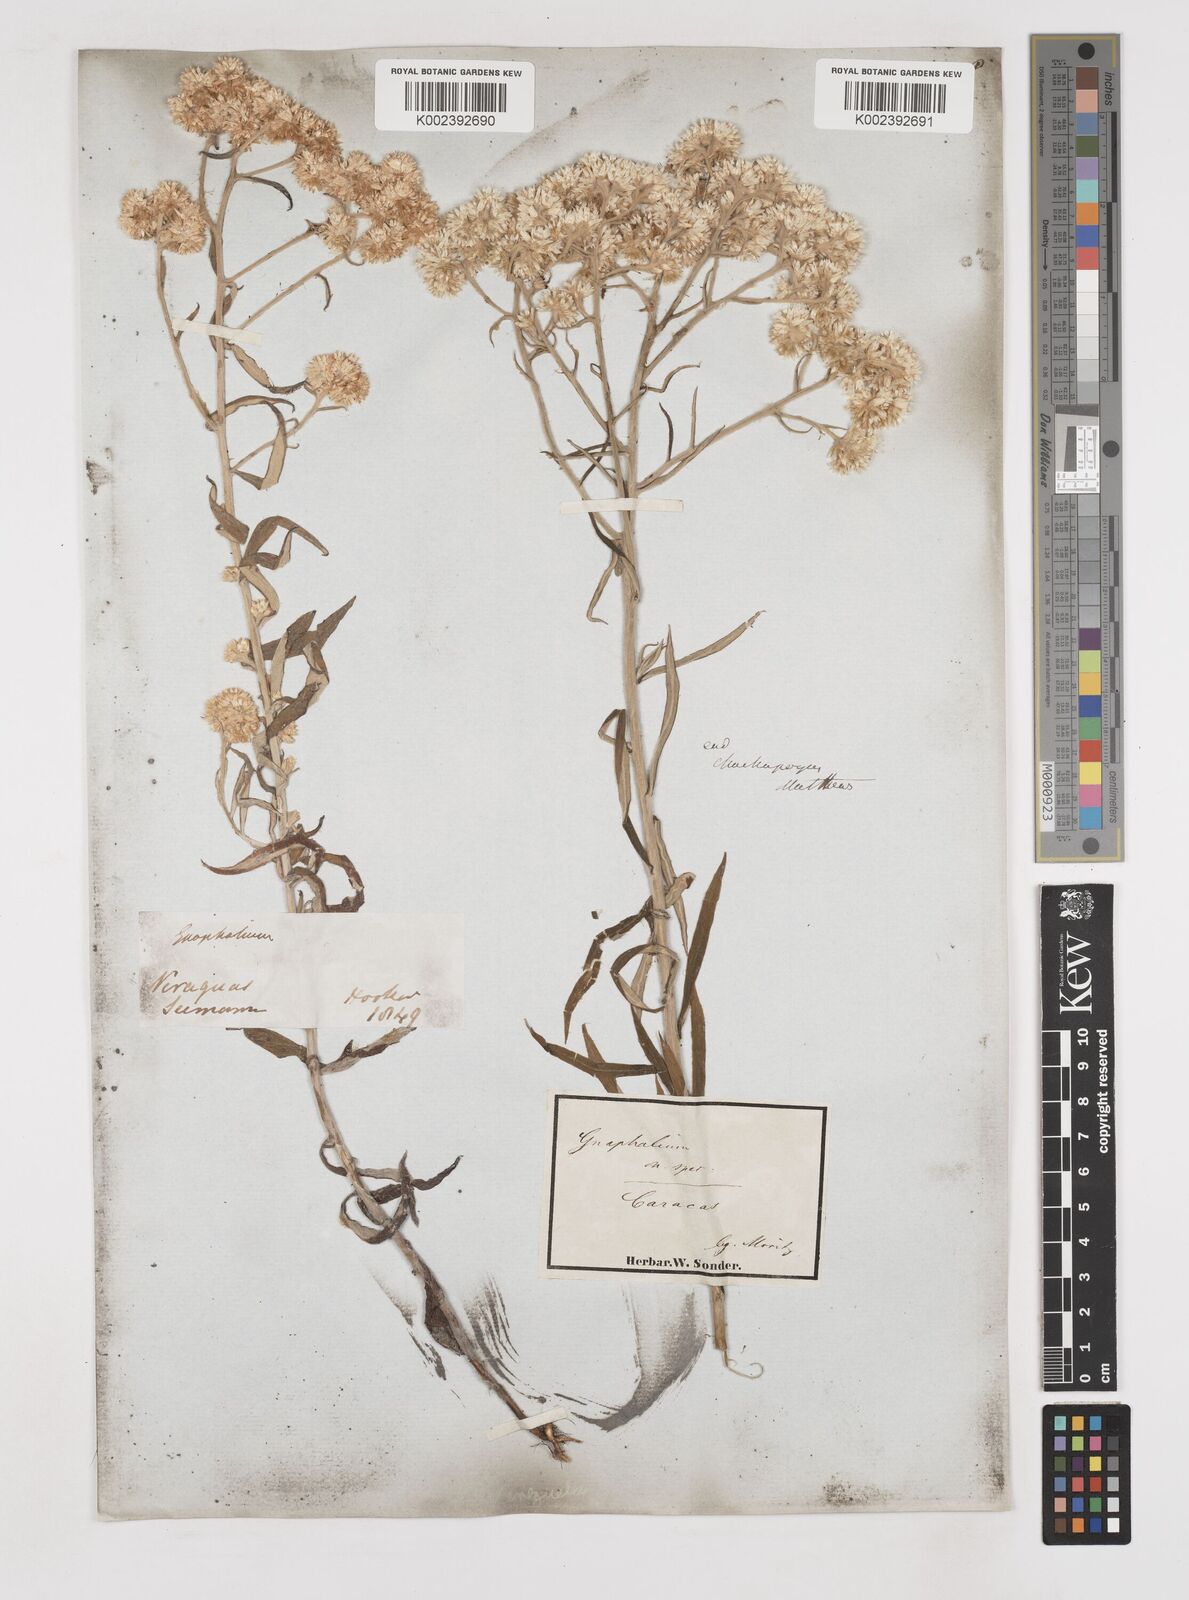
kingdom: Plantae
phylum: Tracheophyta
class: Magnoliopsida
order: Asterales
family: Asteraceae
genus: Gnaphalium
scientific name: Gnaphalium
